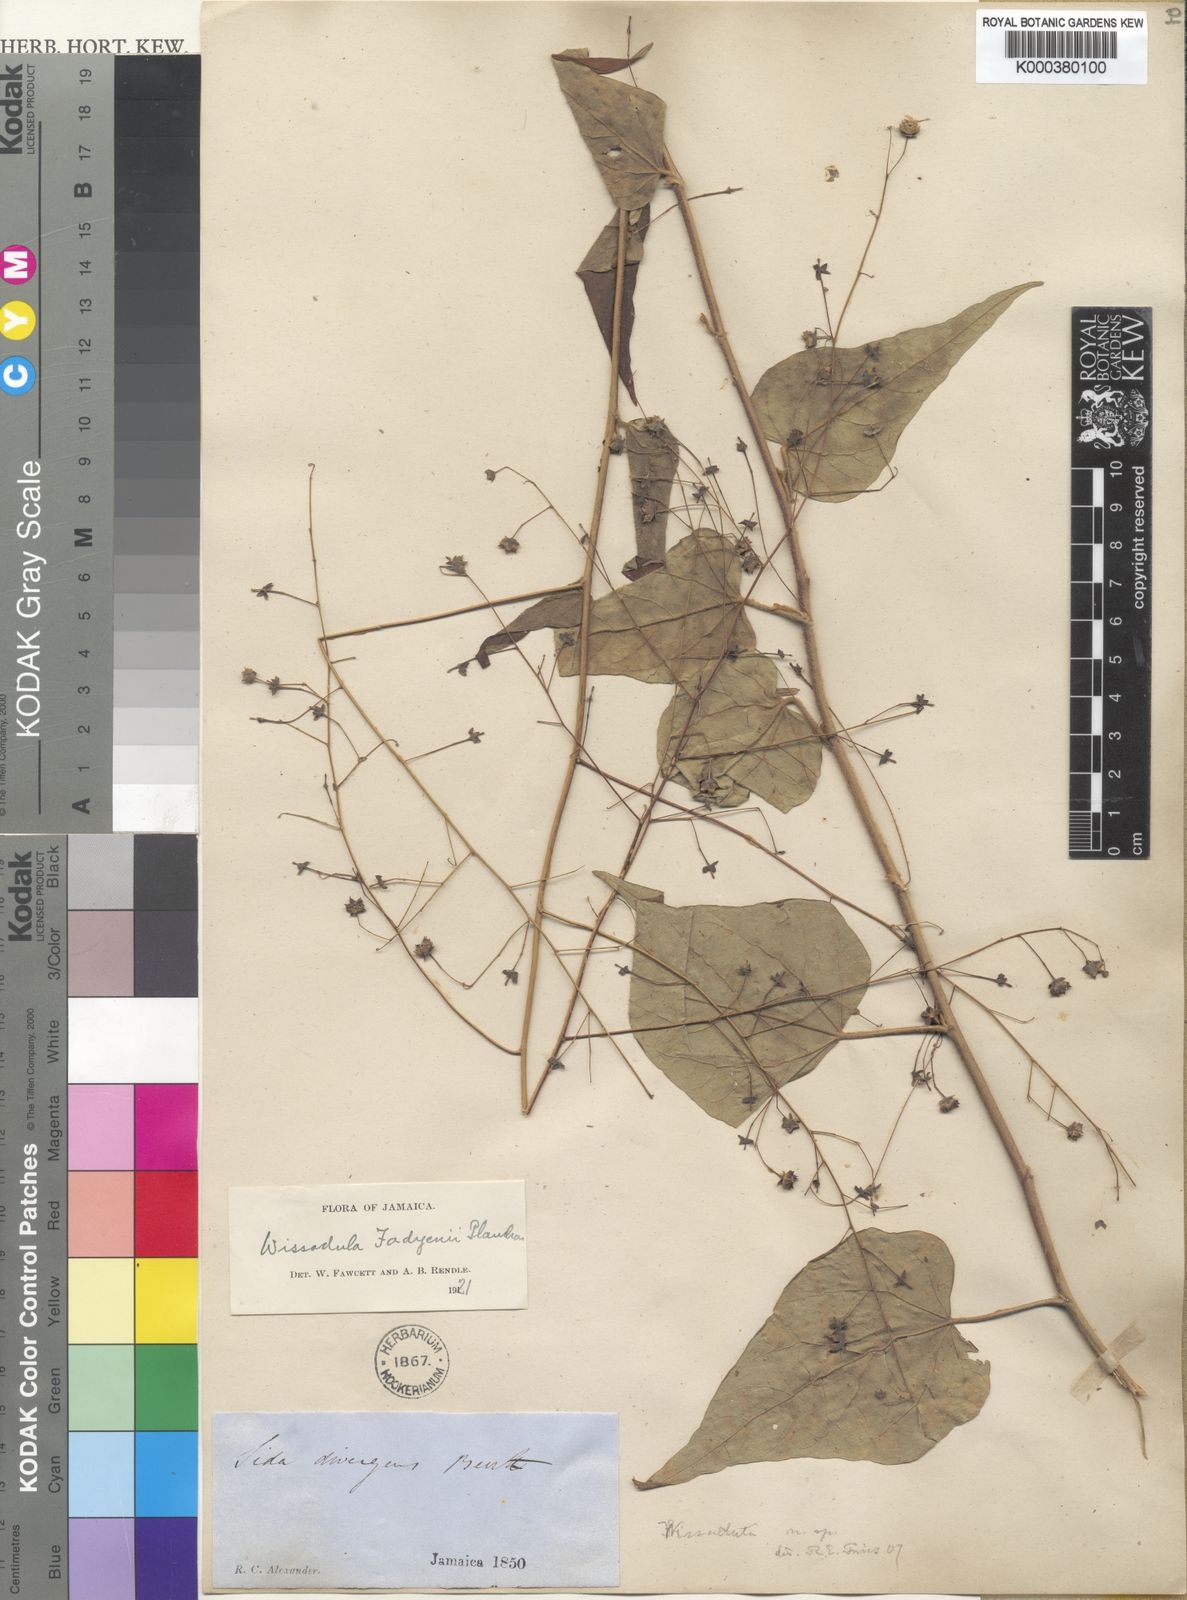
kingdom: Plantae
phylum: Tracheophyta
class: Magnoliopsida
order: Malvales
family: Malvaceae
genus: Wissadula
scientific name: Wissadula fadyenii
